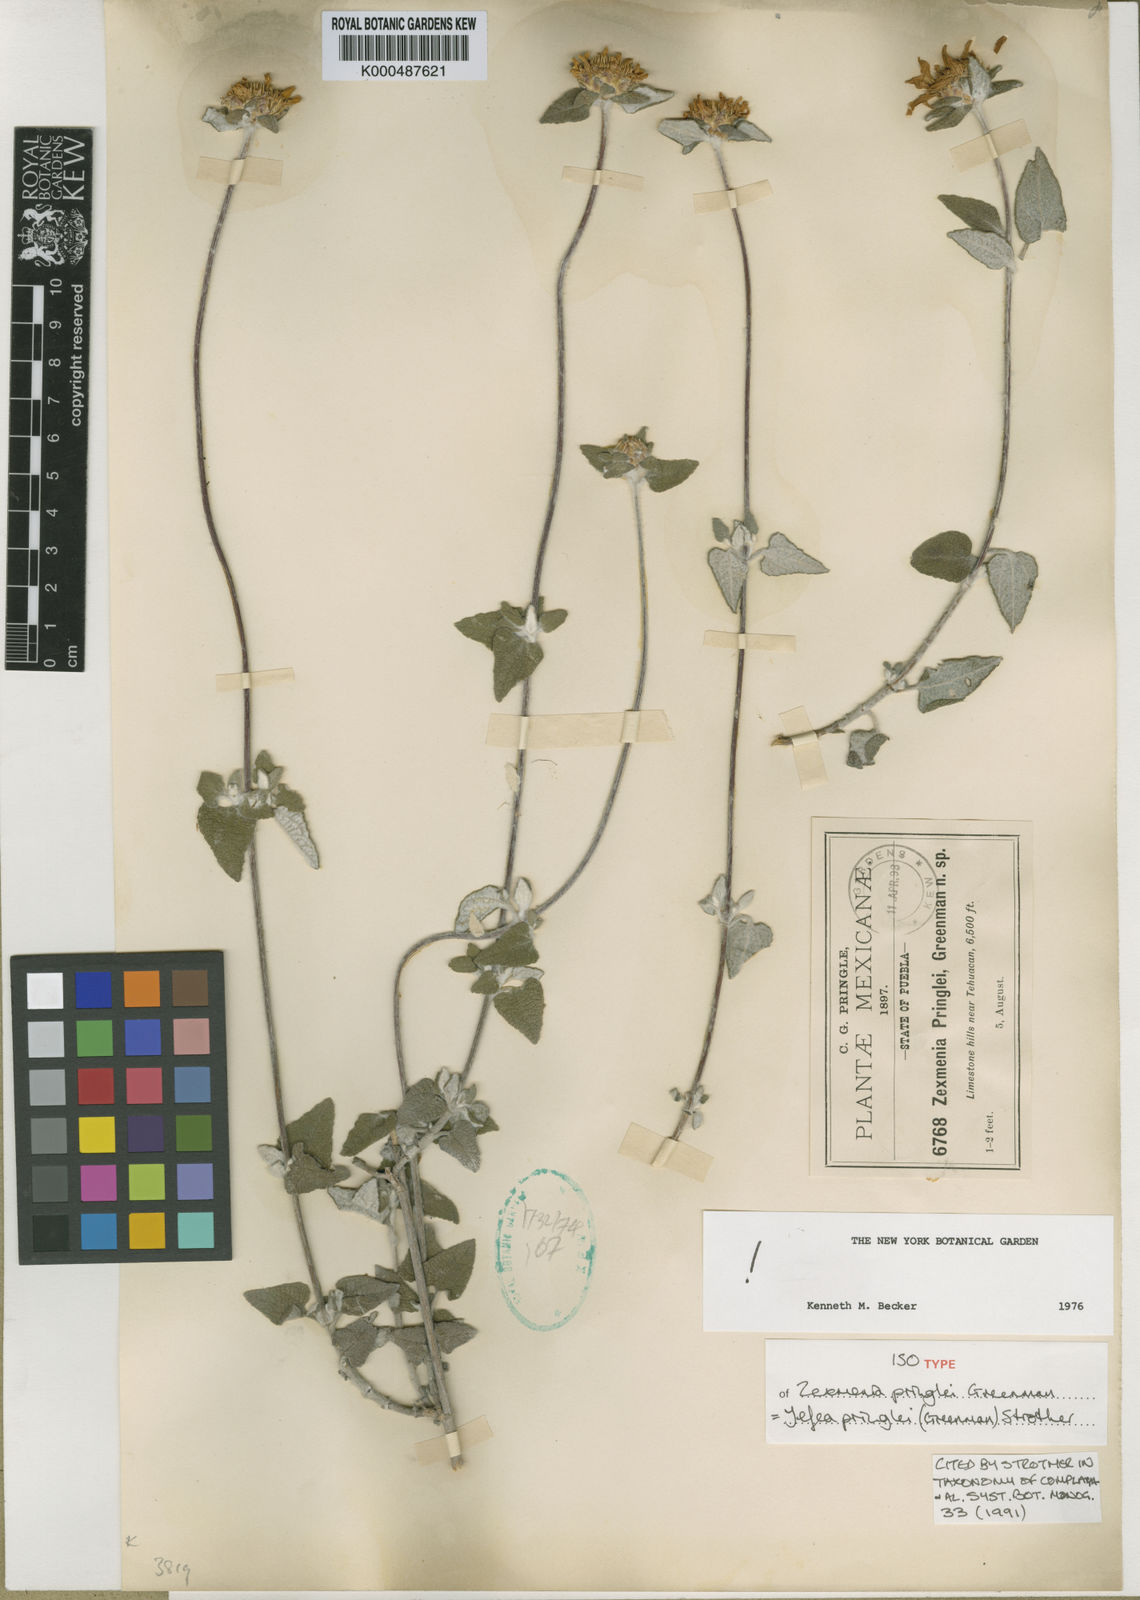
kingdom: Plantae
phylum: Tracheophyta
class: Magnoliopsida
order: Asterales
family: Asteraceae
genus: Jefea
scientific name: Jefea pringlei
